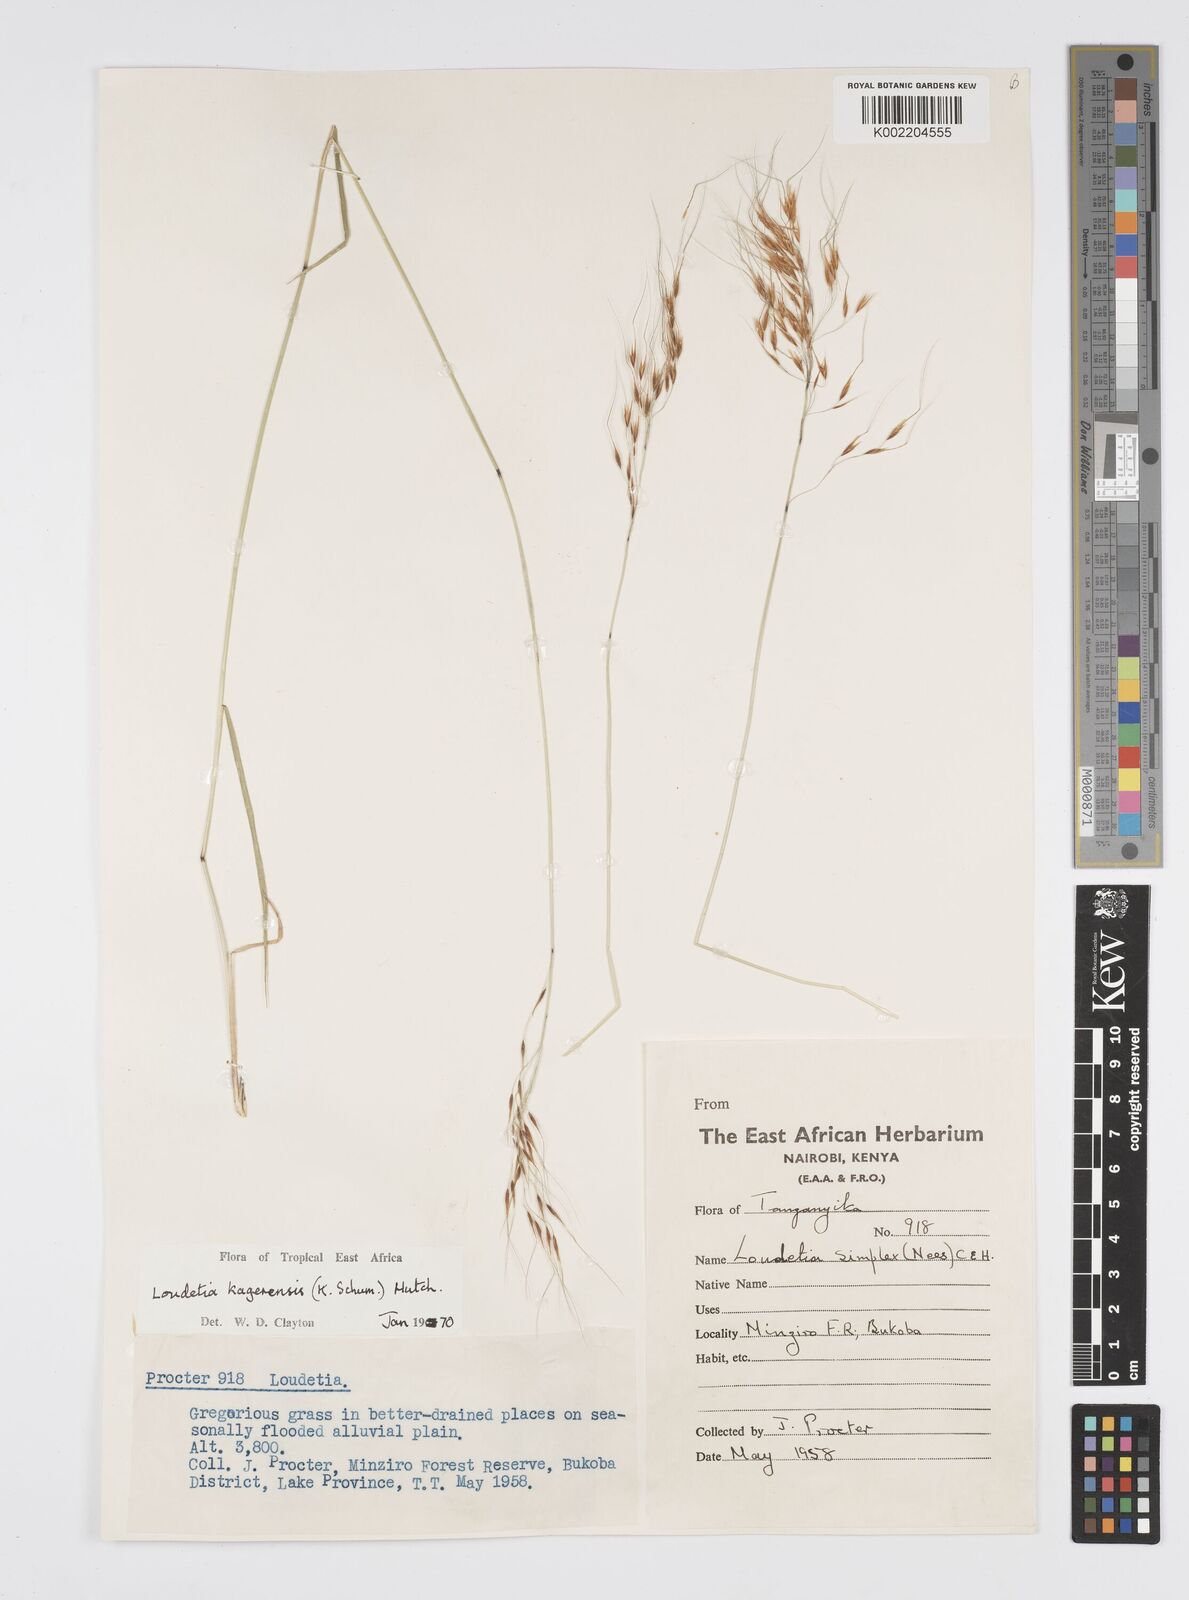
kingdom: Plantae
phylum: Tracheophyta
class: Liliopsida
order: Poales
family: Poaceae
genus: Loudetia
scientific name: Loudetia kagerensis
